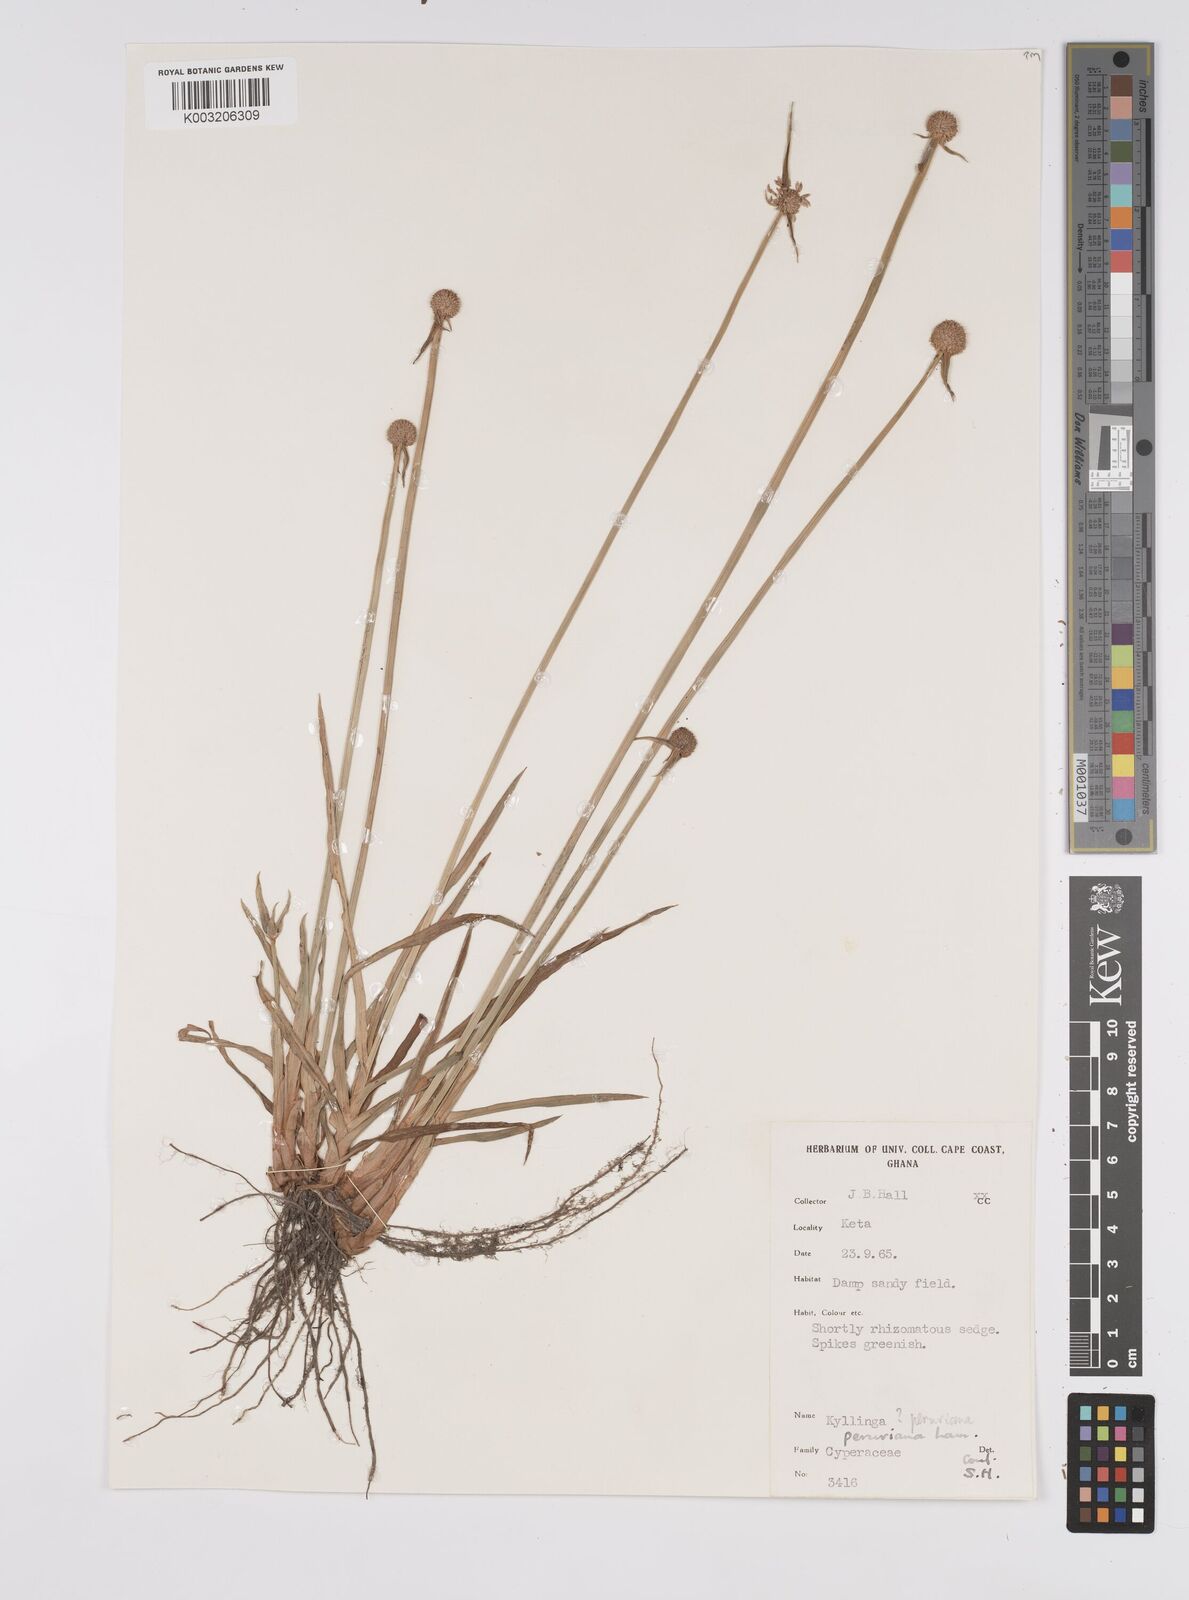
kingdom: Plantae
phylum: Tracheophyta
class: Liliopsida
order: Poales
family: Cyperaceae
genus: Cyperus
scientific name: Cyperus obtusatus
